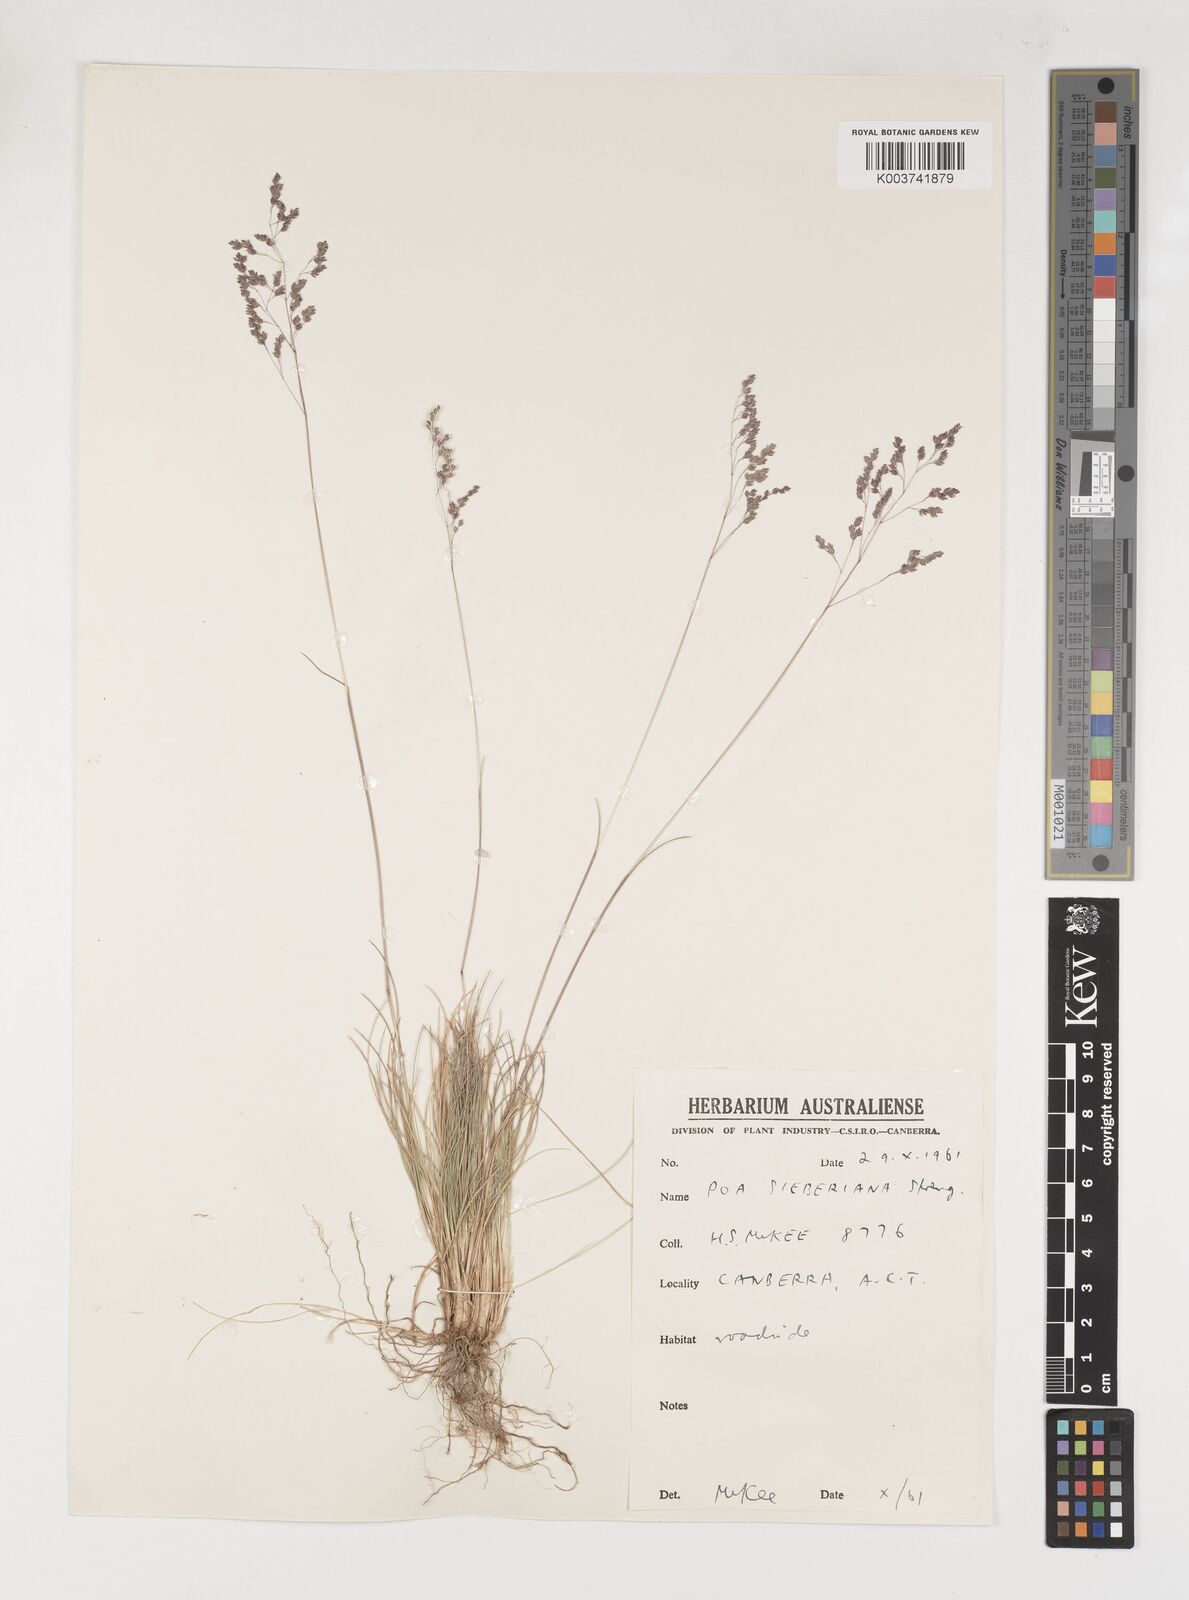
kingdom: Plantae
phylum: Tracheophyta
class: Liliopsida
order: Poales
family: Poaceae
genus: Poa
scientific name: Poa sieberiana
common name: Tussock poa
